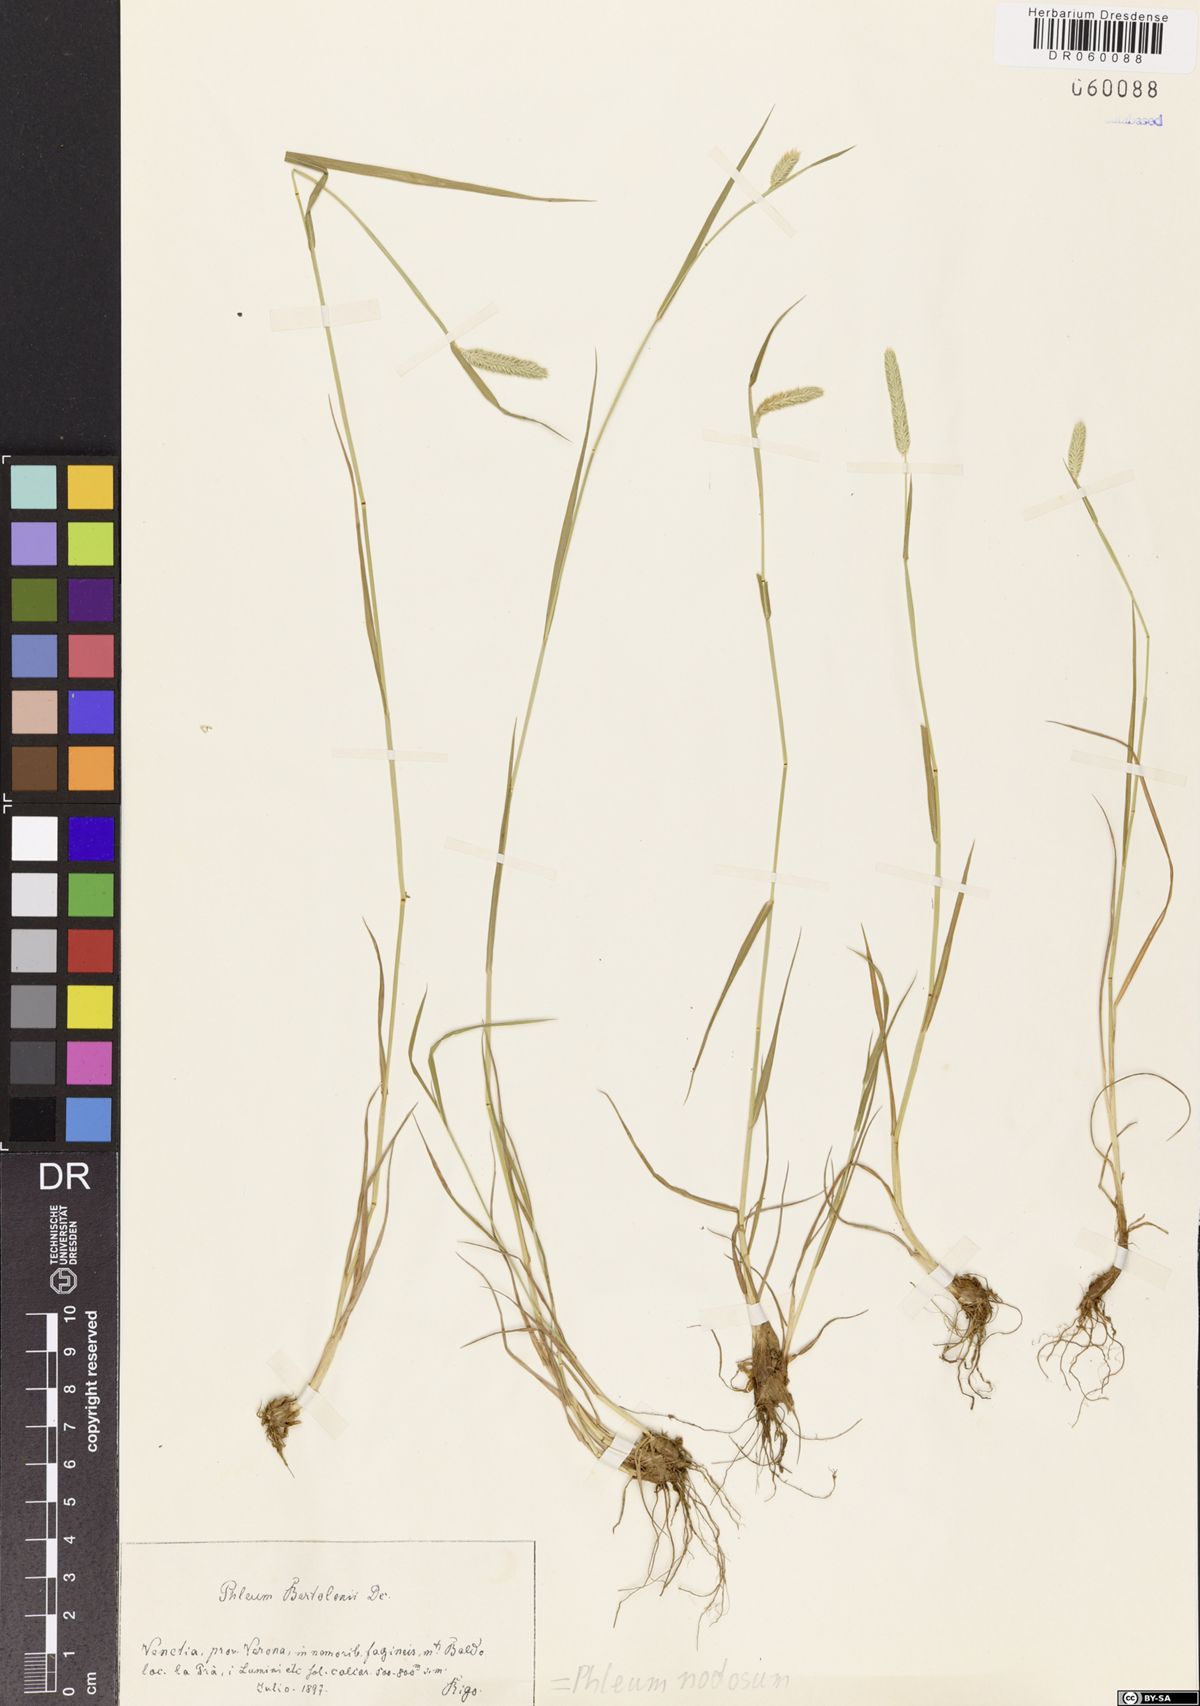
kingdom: Plantae
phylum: Tracheophyta
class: Liliopsida
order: Poales
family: Poaceae
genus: Phleum
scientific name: Phleum pratense
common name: Timothy grass
